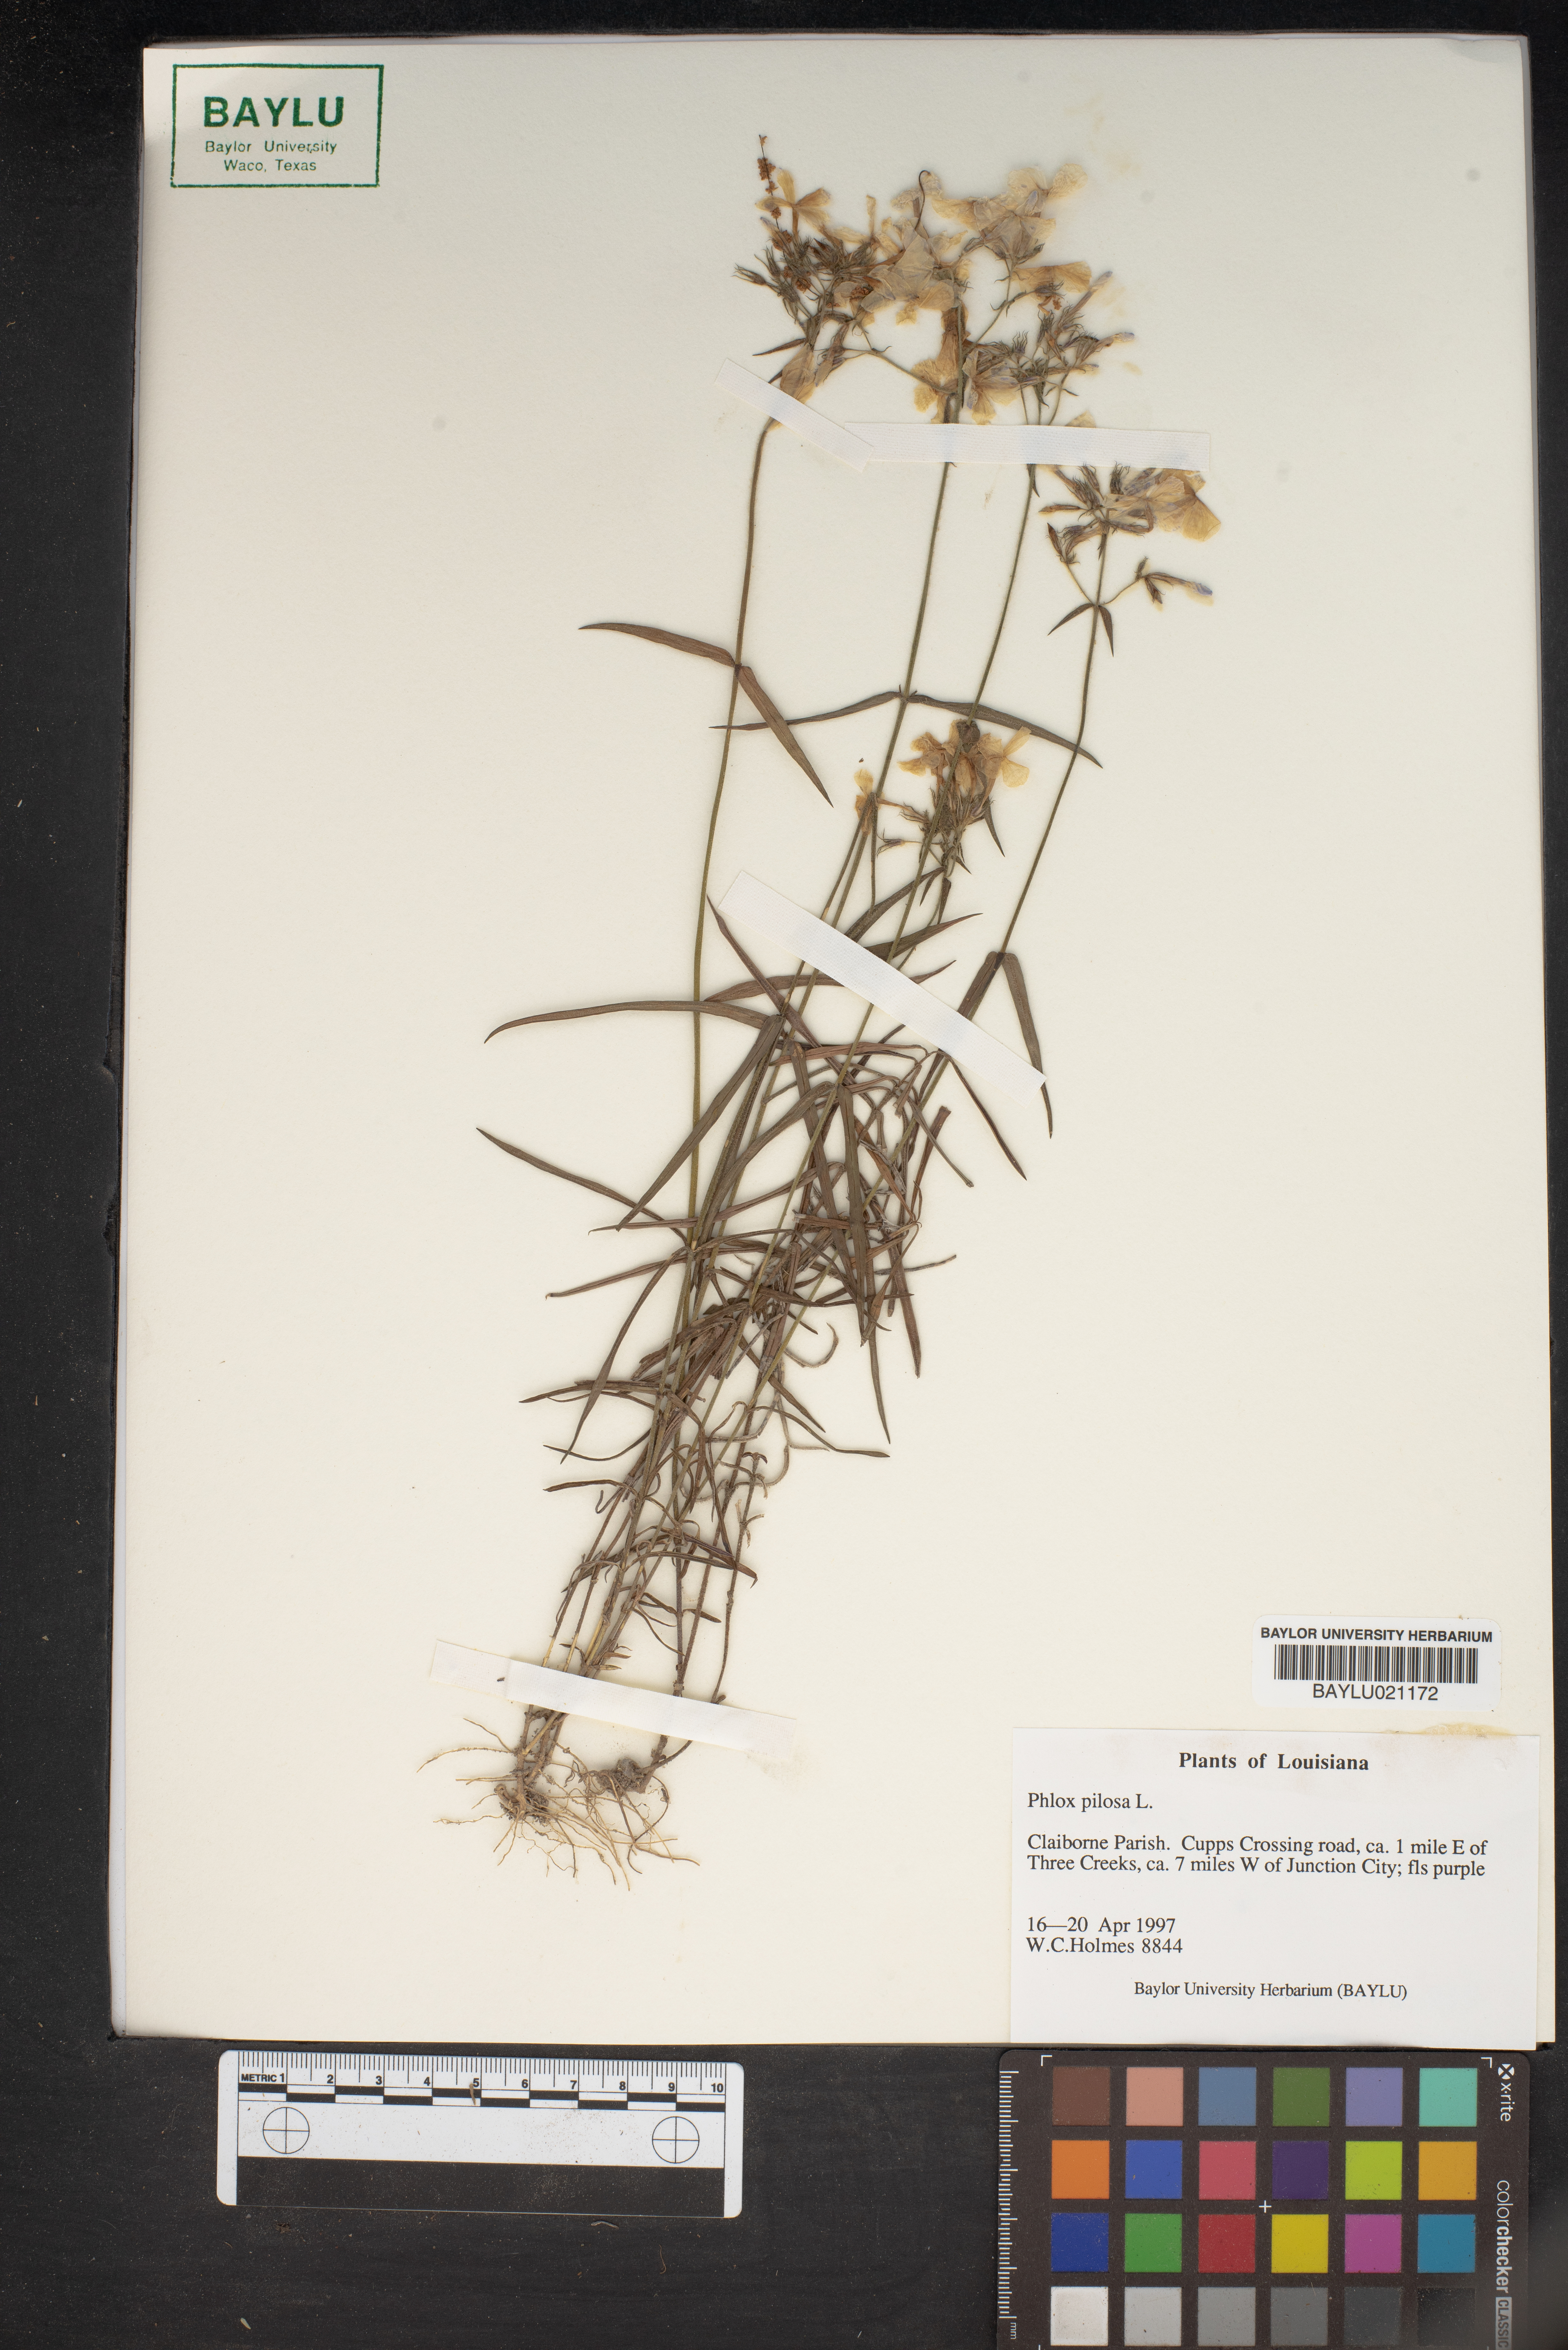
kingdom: Plantae
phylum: Tracheophyta
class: Magnoliopsida
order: Ericales
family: Polemoniaceae
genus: Phlox
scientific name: Phlox pilosa
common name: Prairie phlox
